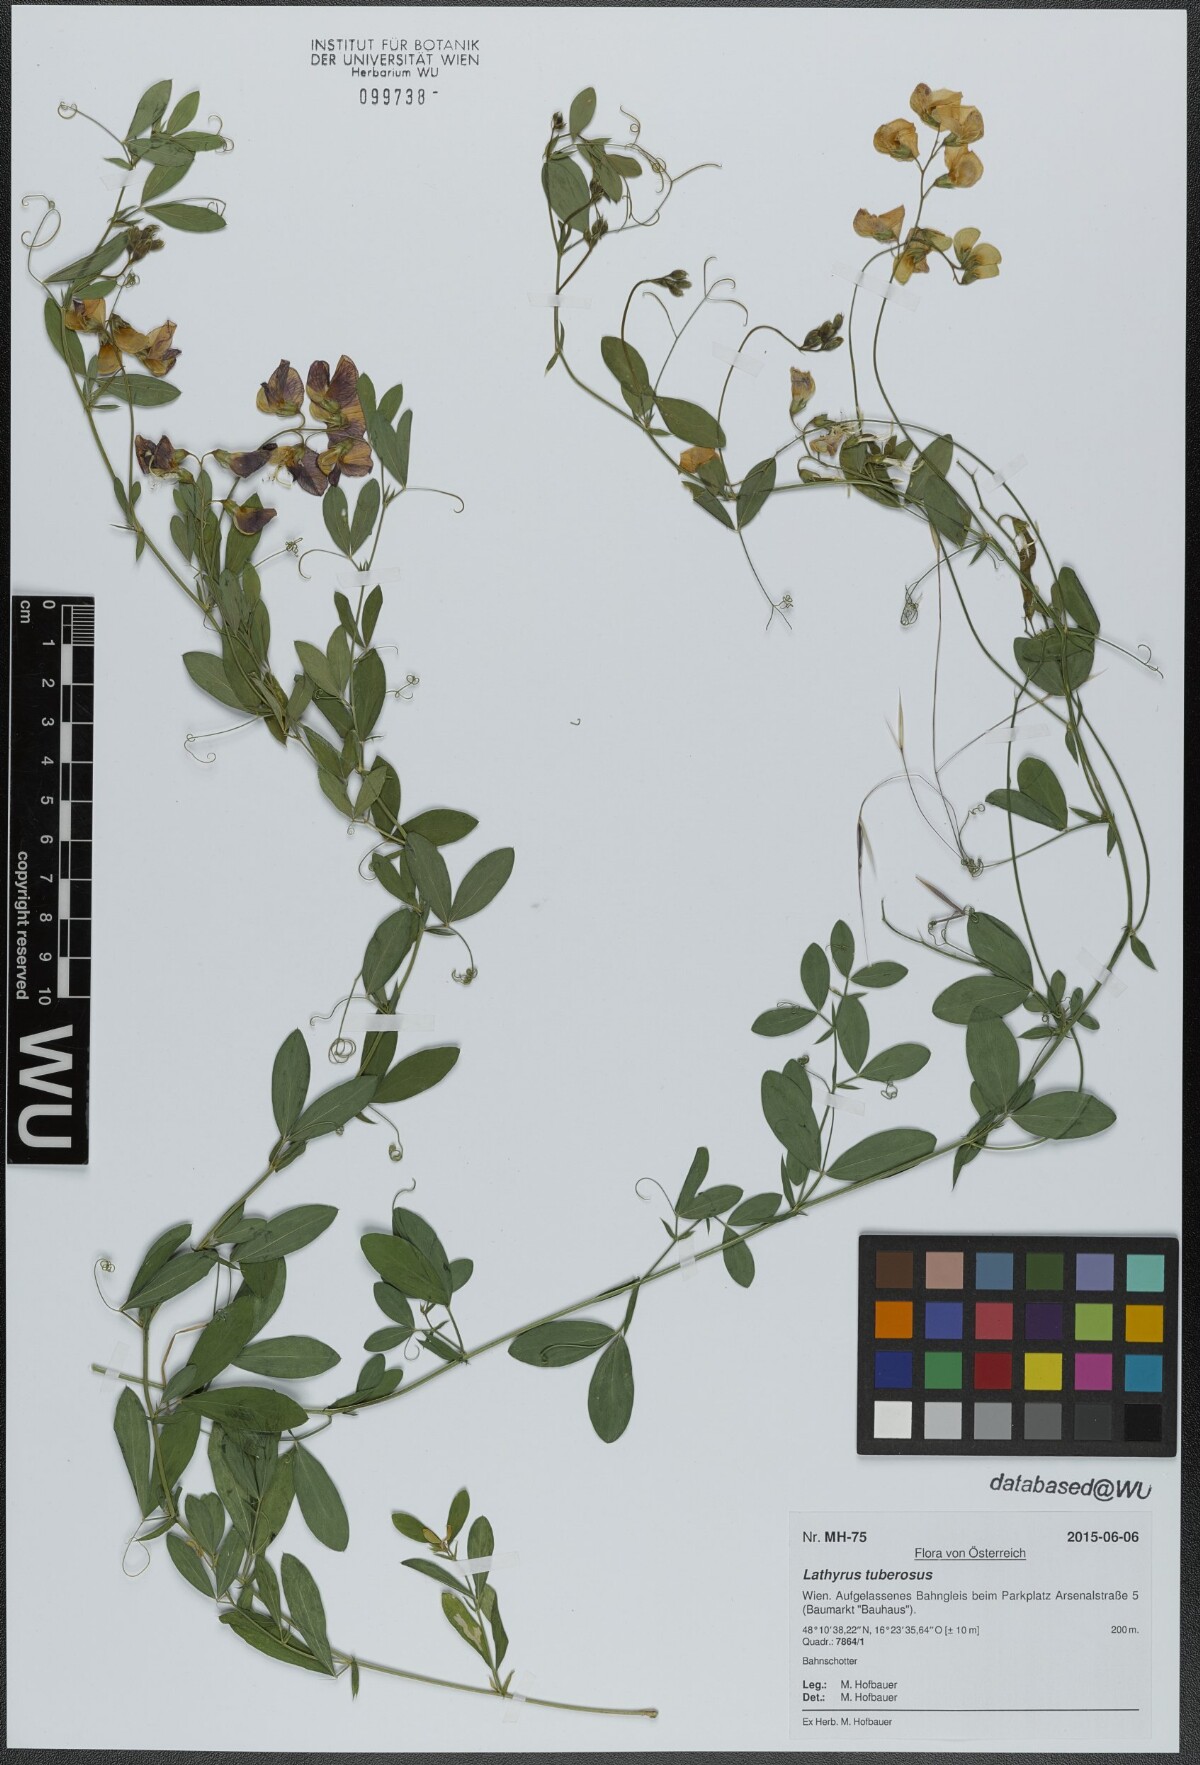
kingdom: Plantae
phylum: Tracheophyta
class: Magnoliopsida
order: Fabales
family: Fabaceae
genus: Lathyrus
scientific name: Lathyrus tuberosus
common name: Tuberous pea
